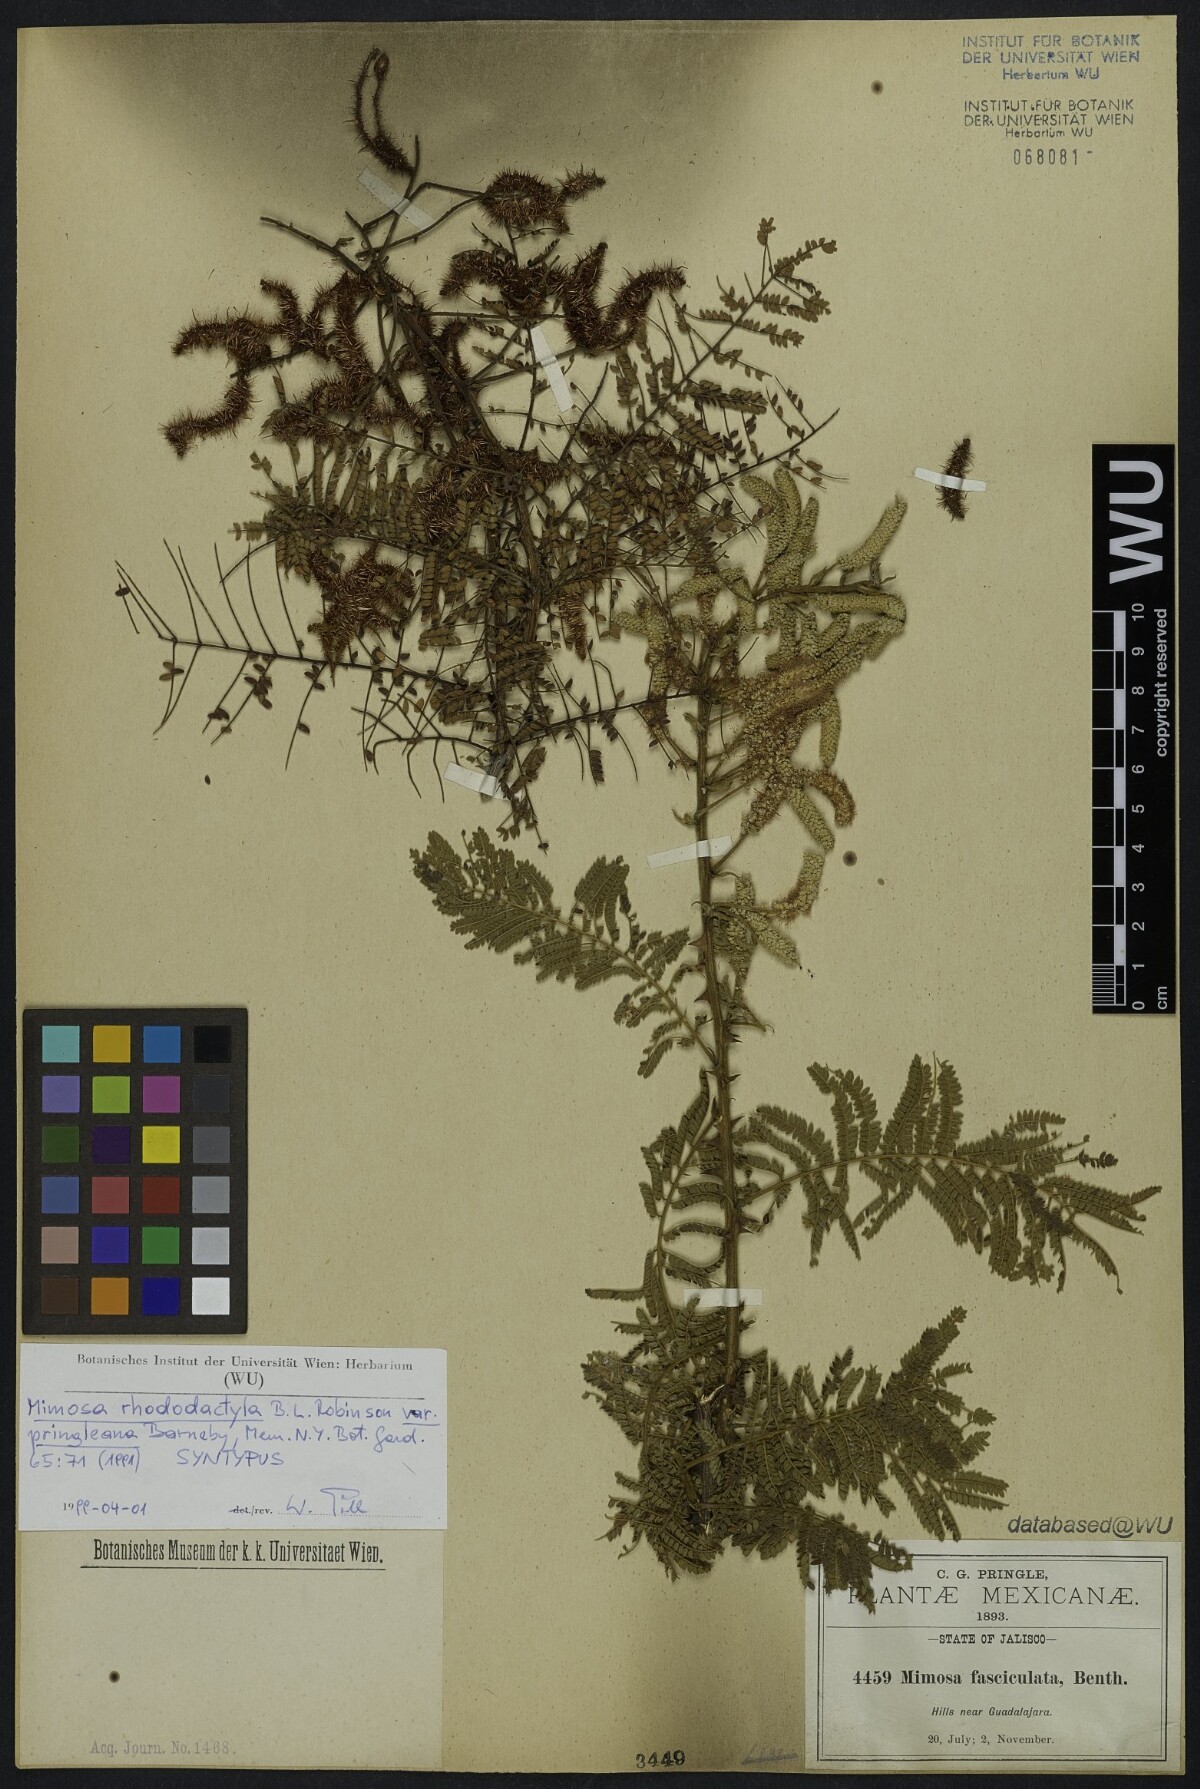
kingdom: Plantae
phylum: Tracheophyta
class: Magnoliopsida
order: Fabales
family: Fabaceae
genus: Mimosa
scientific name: Mimosa rhododactyla
